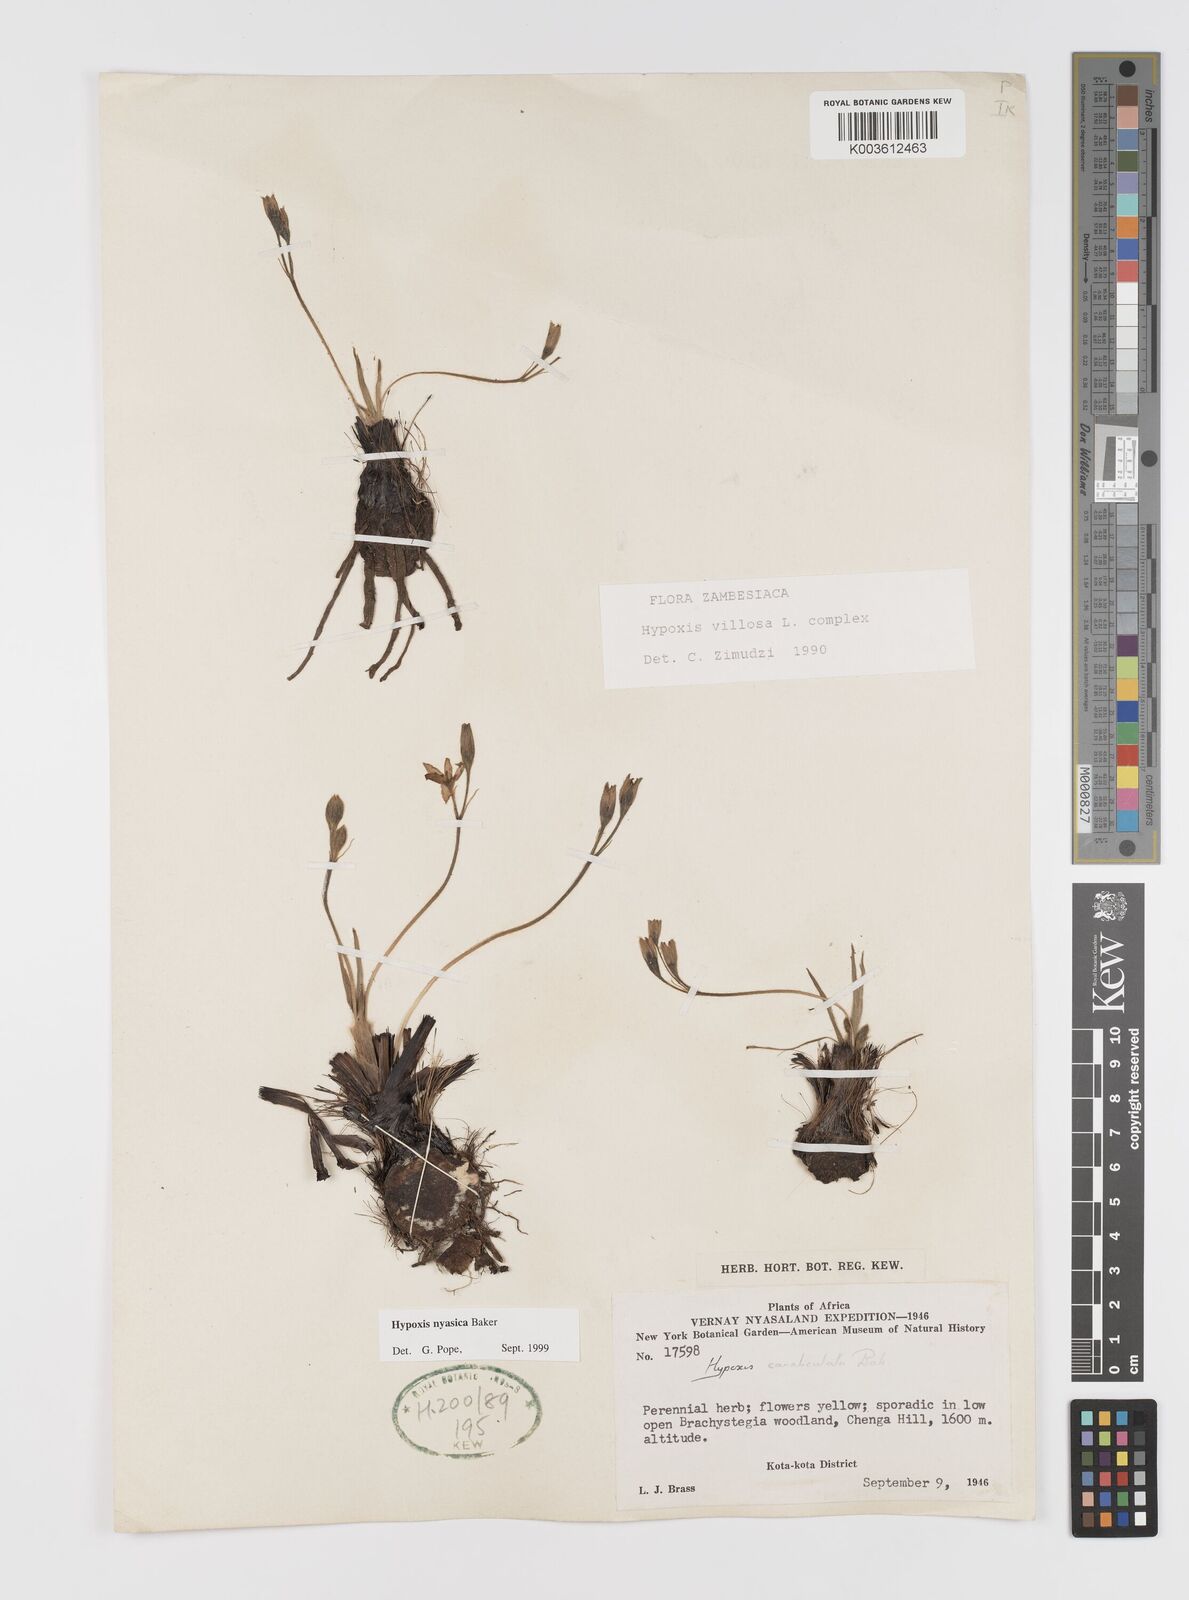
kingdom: Plantae
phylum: Tracheophyta
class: Liliopsida
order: Asparagales
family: Hypoxidaceae
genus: Hypoxis
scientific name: Hypoxis nyasica
